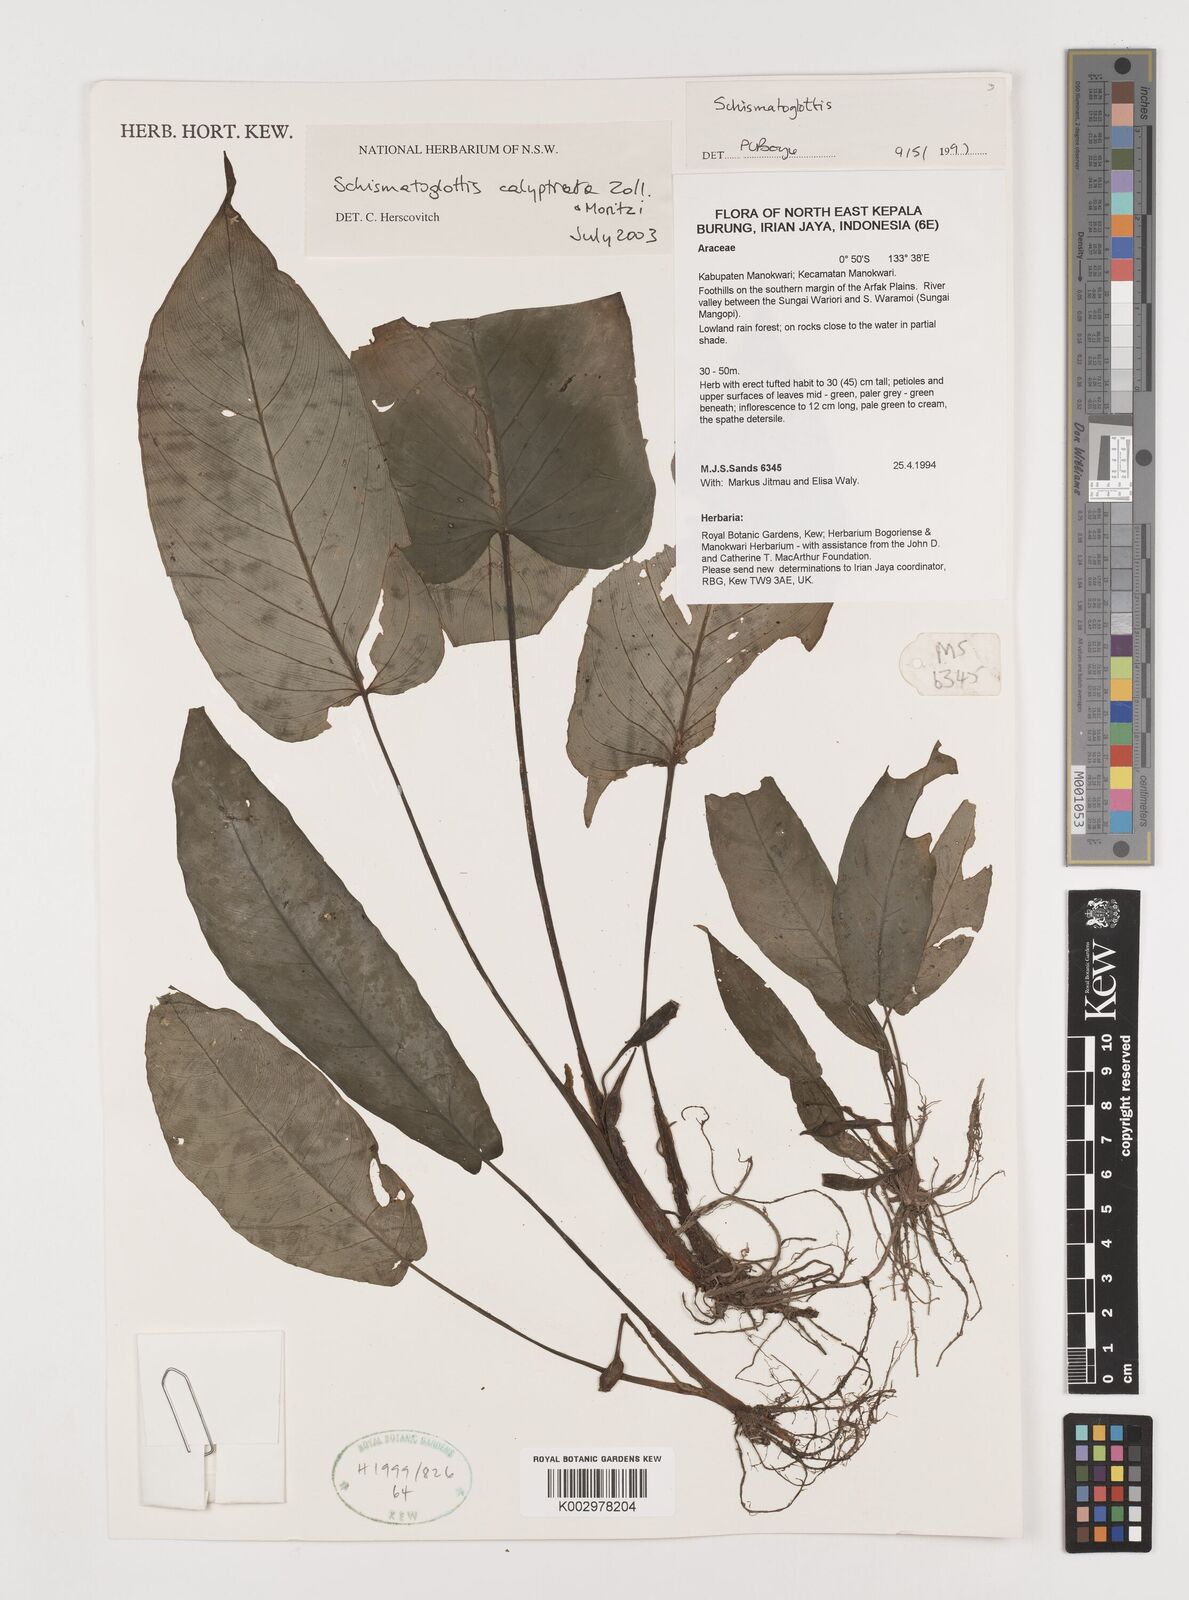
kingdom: Plantae
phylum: Tracheophyta
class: Liliopsida
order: Alismatales
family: Araceae
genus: Schismatoglottis
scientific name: Schismatoglottis calyptrata
